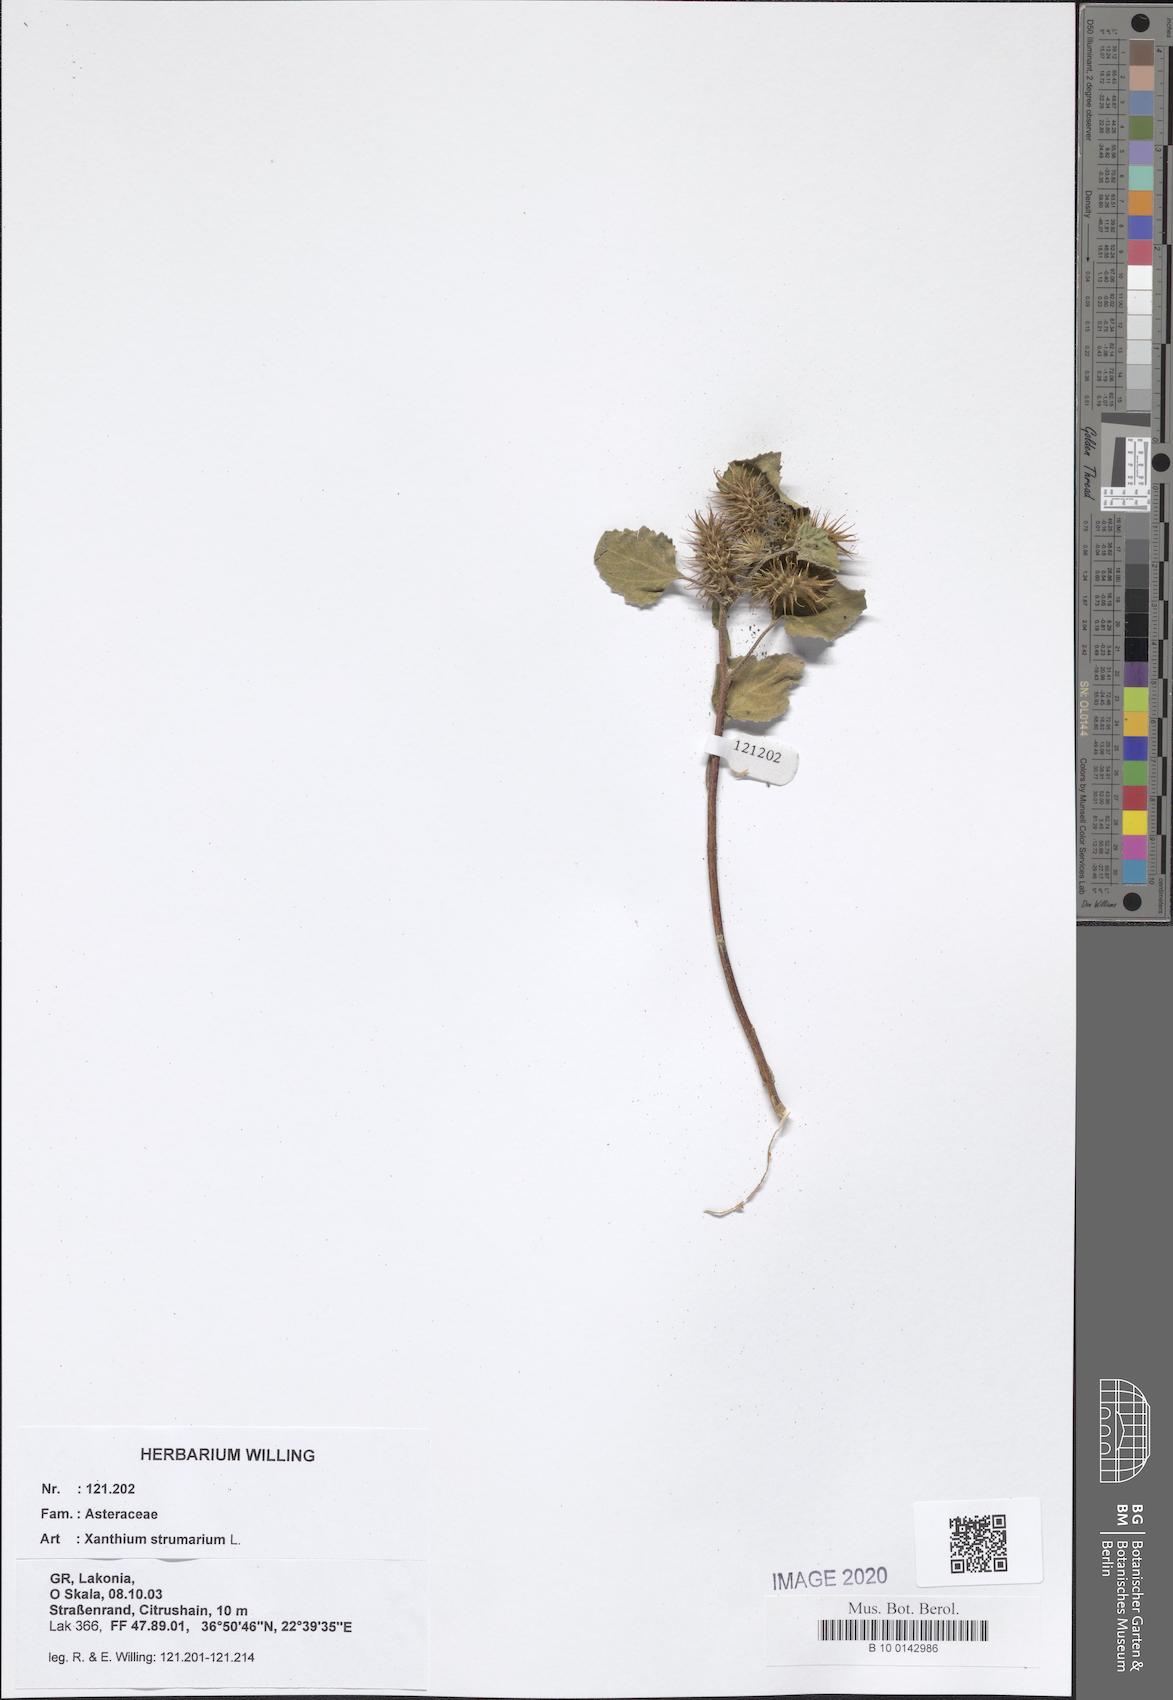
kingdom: Plantae
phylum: Tracheophyta
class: Magnoliopsida
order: Asterales
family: Asteraceae
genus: Xanthium
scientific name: Xanthium strumarium
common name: Rough cocklebur
